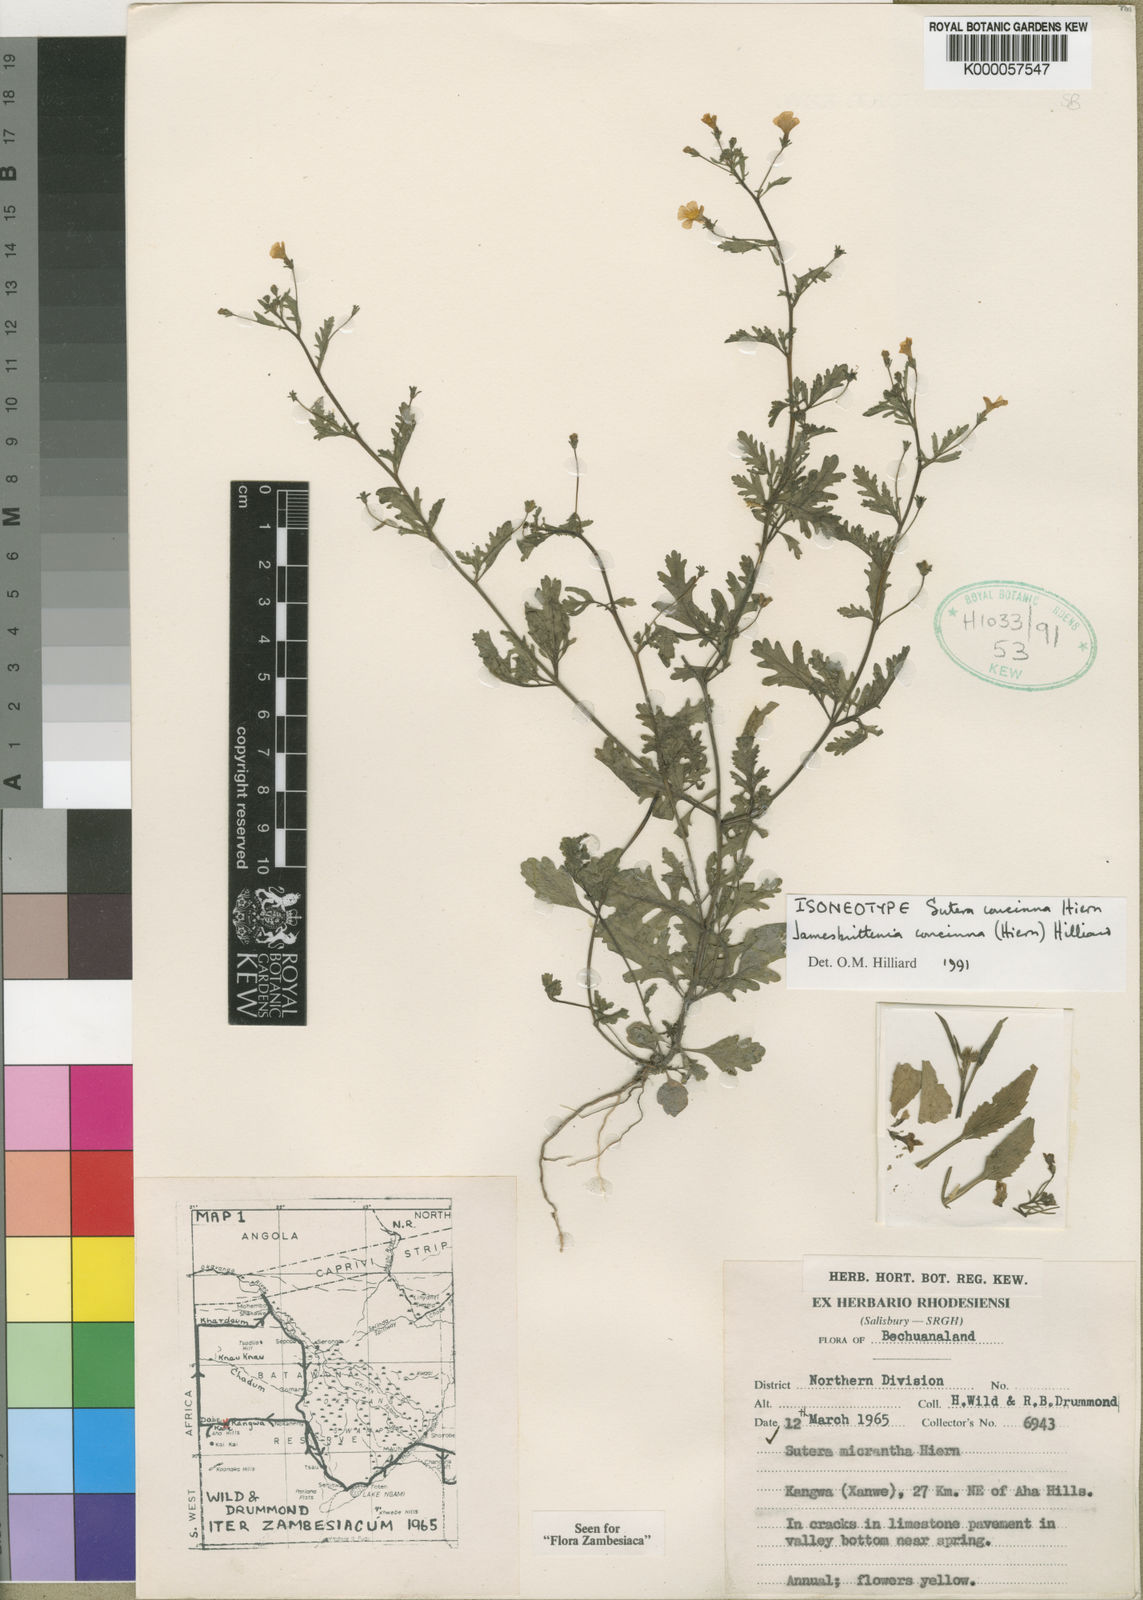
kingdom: Plantae
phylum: Tracheophyta
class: Magnoliopsida
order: Lamiales
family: Scrophulariaceae
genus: Jamesbrittenia
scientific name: Jamesbrittenia concinna
